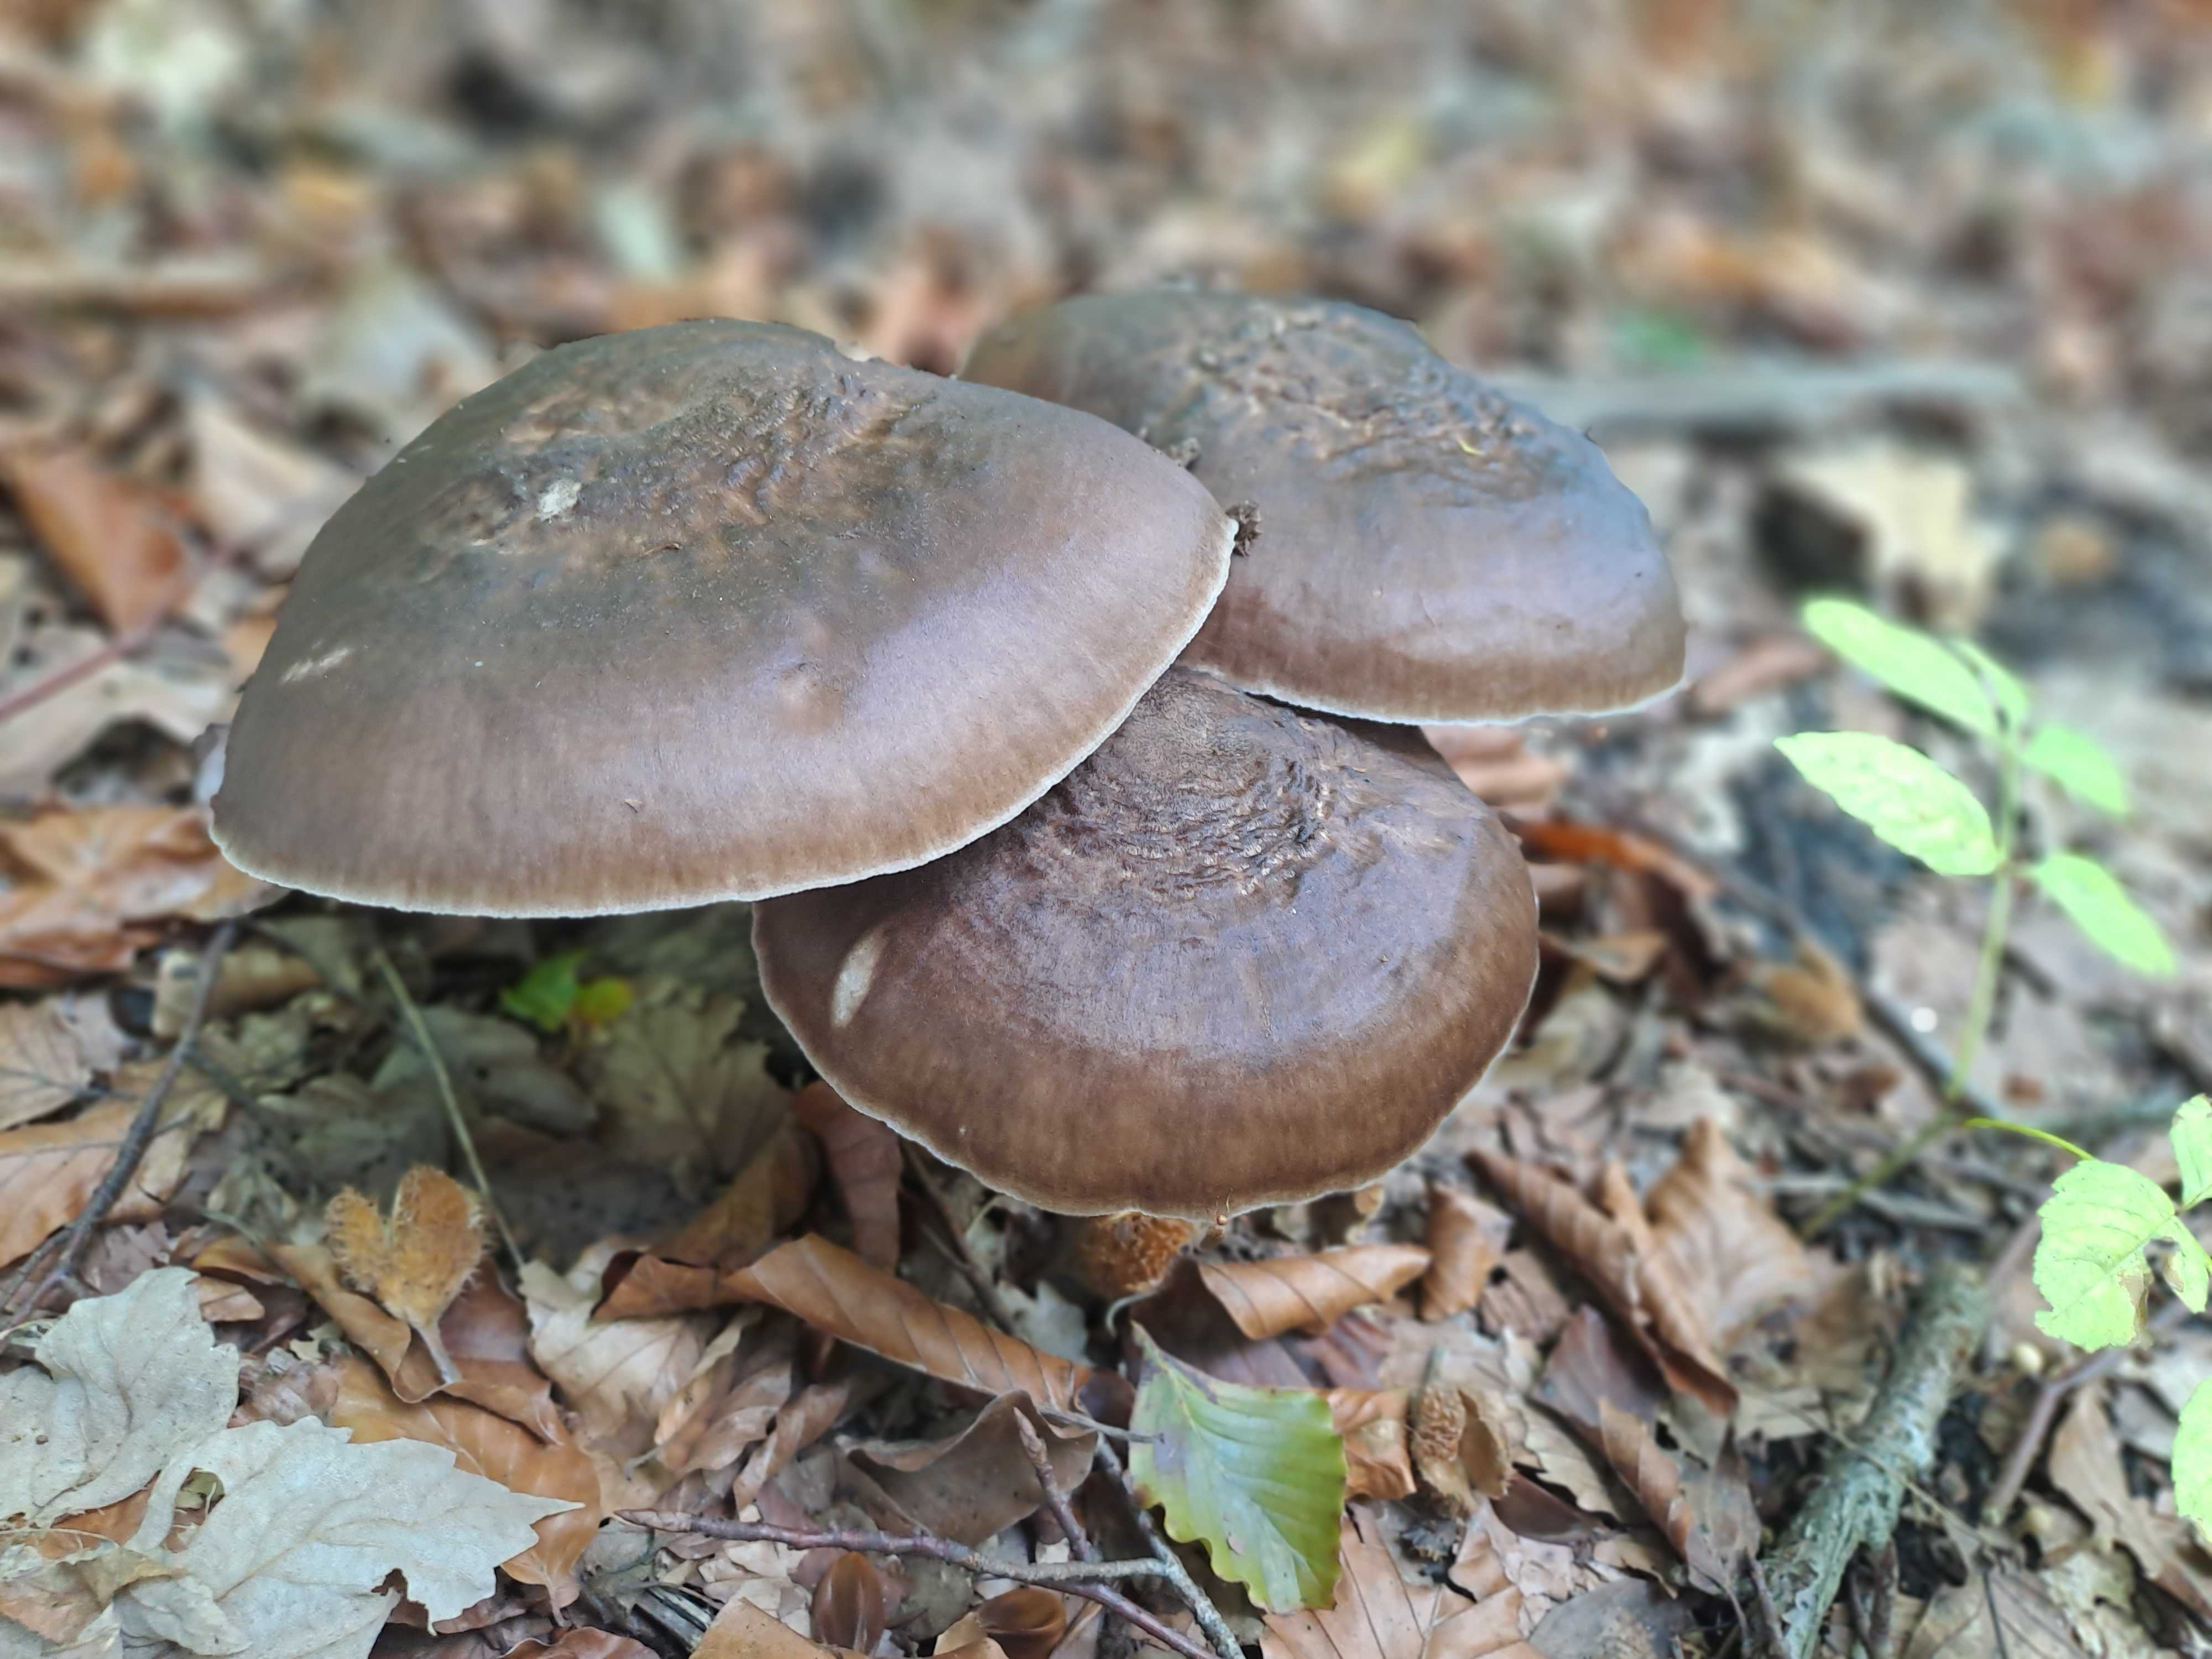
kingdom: Fungi
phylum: Basidiomycota
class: Agaricomycetes
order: Agaricales
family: Pluteaceae
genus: Pluteus
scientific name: Pluteus cervinus
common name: sodfarvet skærmhat
